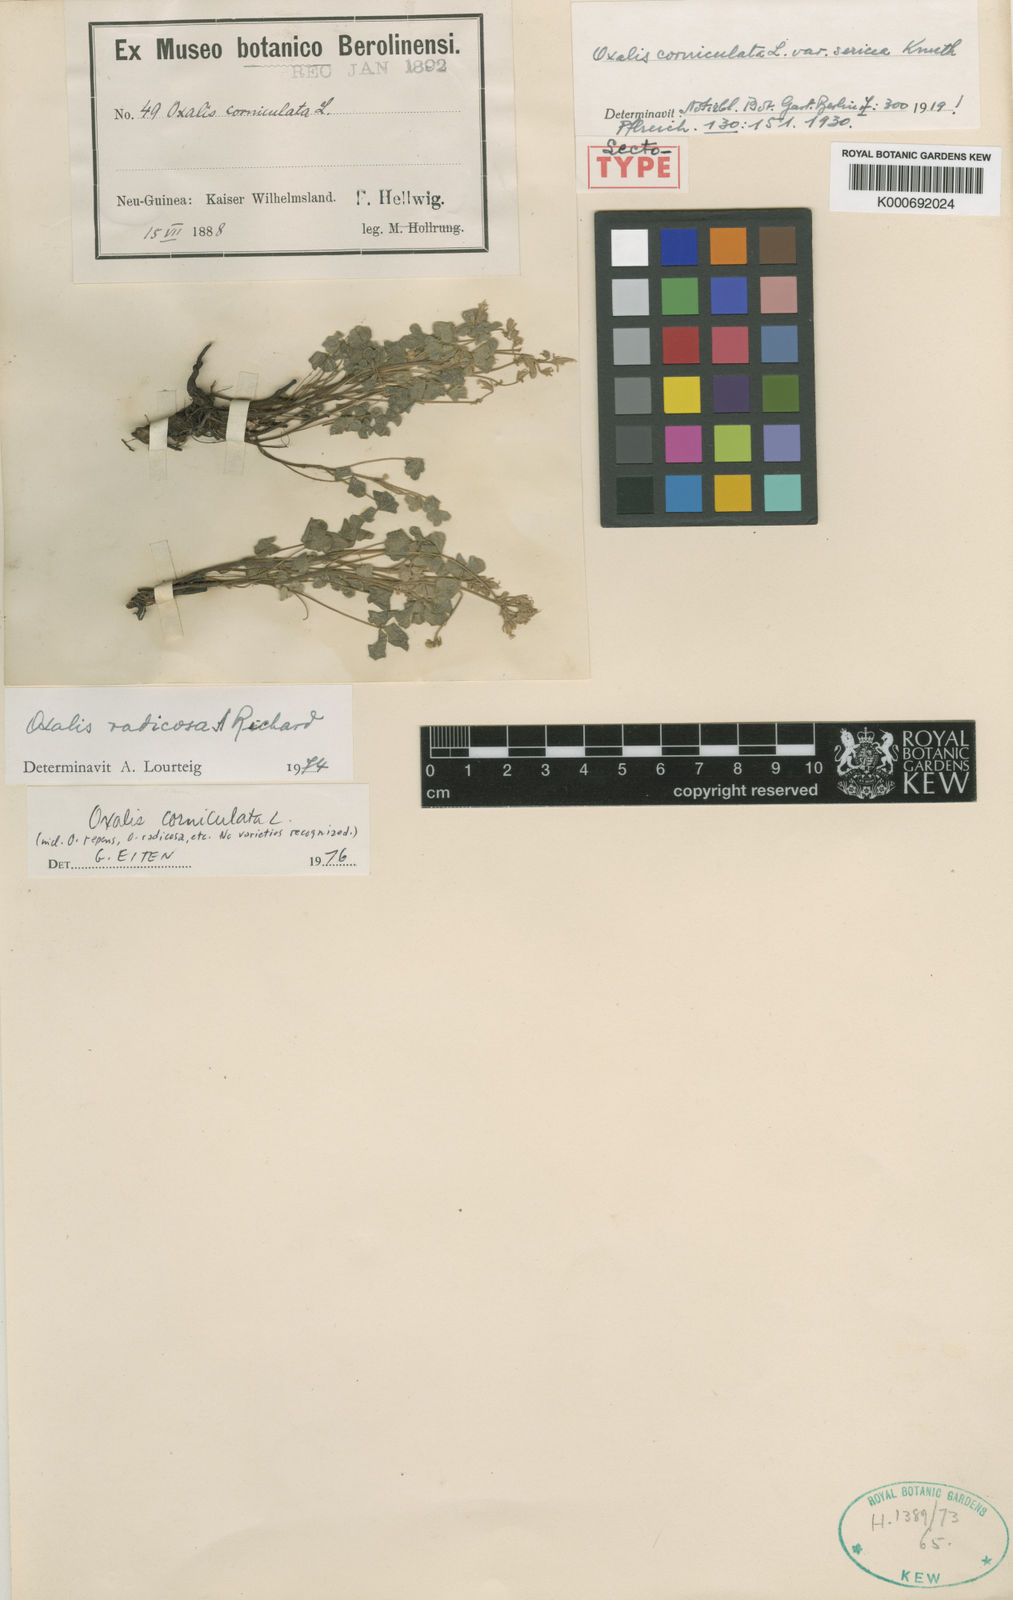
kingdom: Plantae
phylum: Tracheophyta
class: Magnoliopsida
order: Oxalidales
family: Oxalidaceae
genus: Oxalis
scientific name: Oxalis
